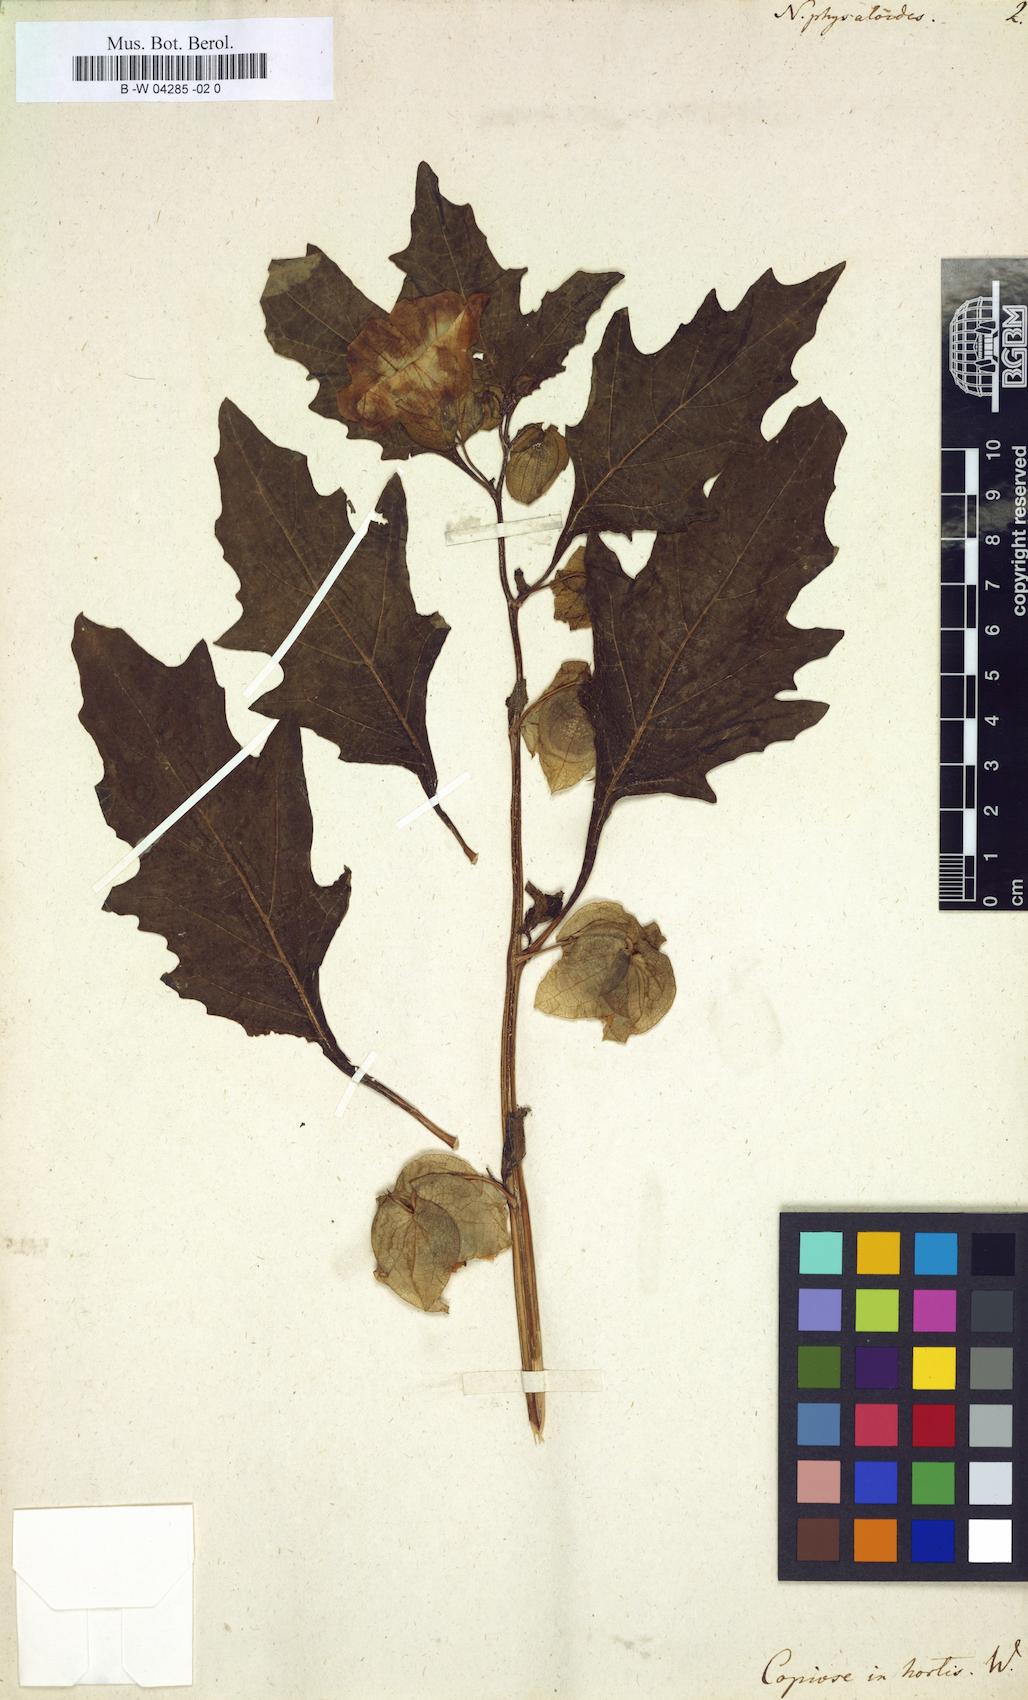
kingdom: Plantae
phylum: Tracheophyta
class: Magnoliopsida
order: Solanales
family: Solanaceae
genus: Physochlaina
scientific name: Physochlaina physaloides
